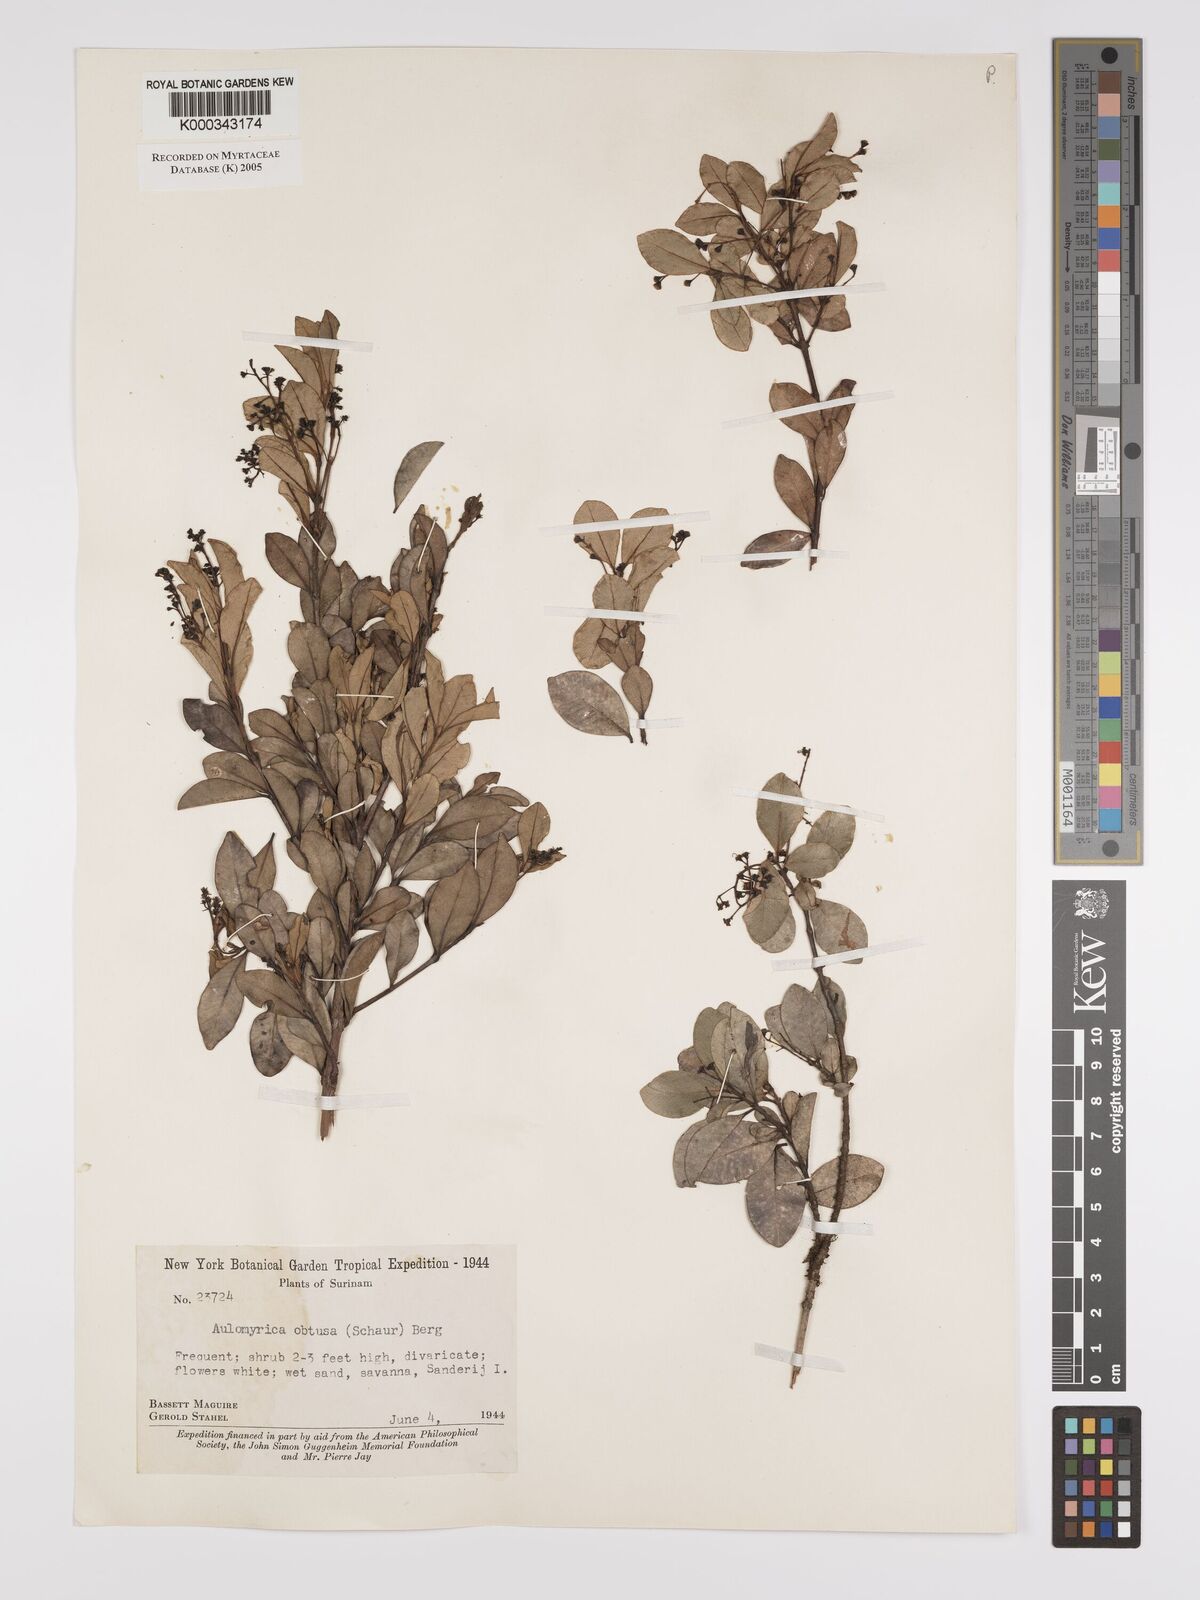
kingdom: Plantae
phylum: Tracheophyta
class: Magnoliopsida
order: Myrtales
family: Myrtaceae
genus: Myrcia
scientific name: Myrcia guianensis
